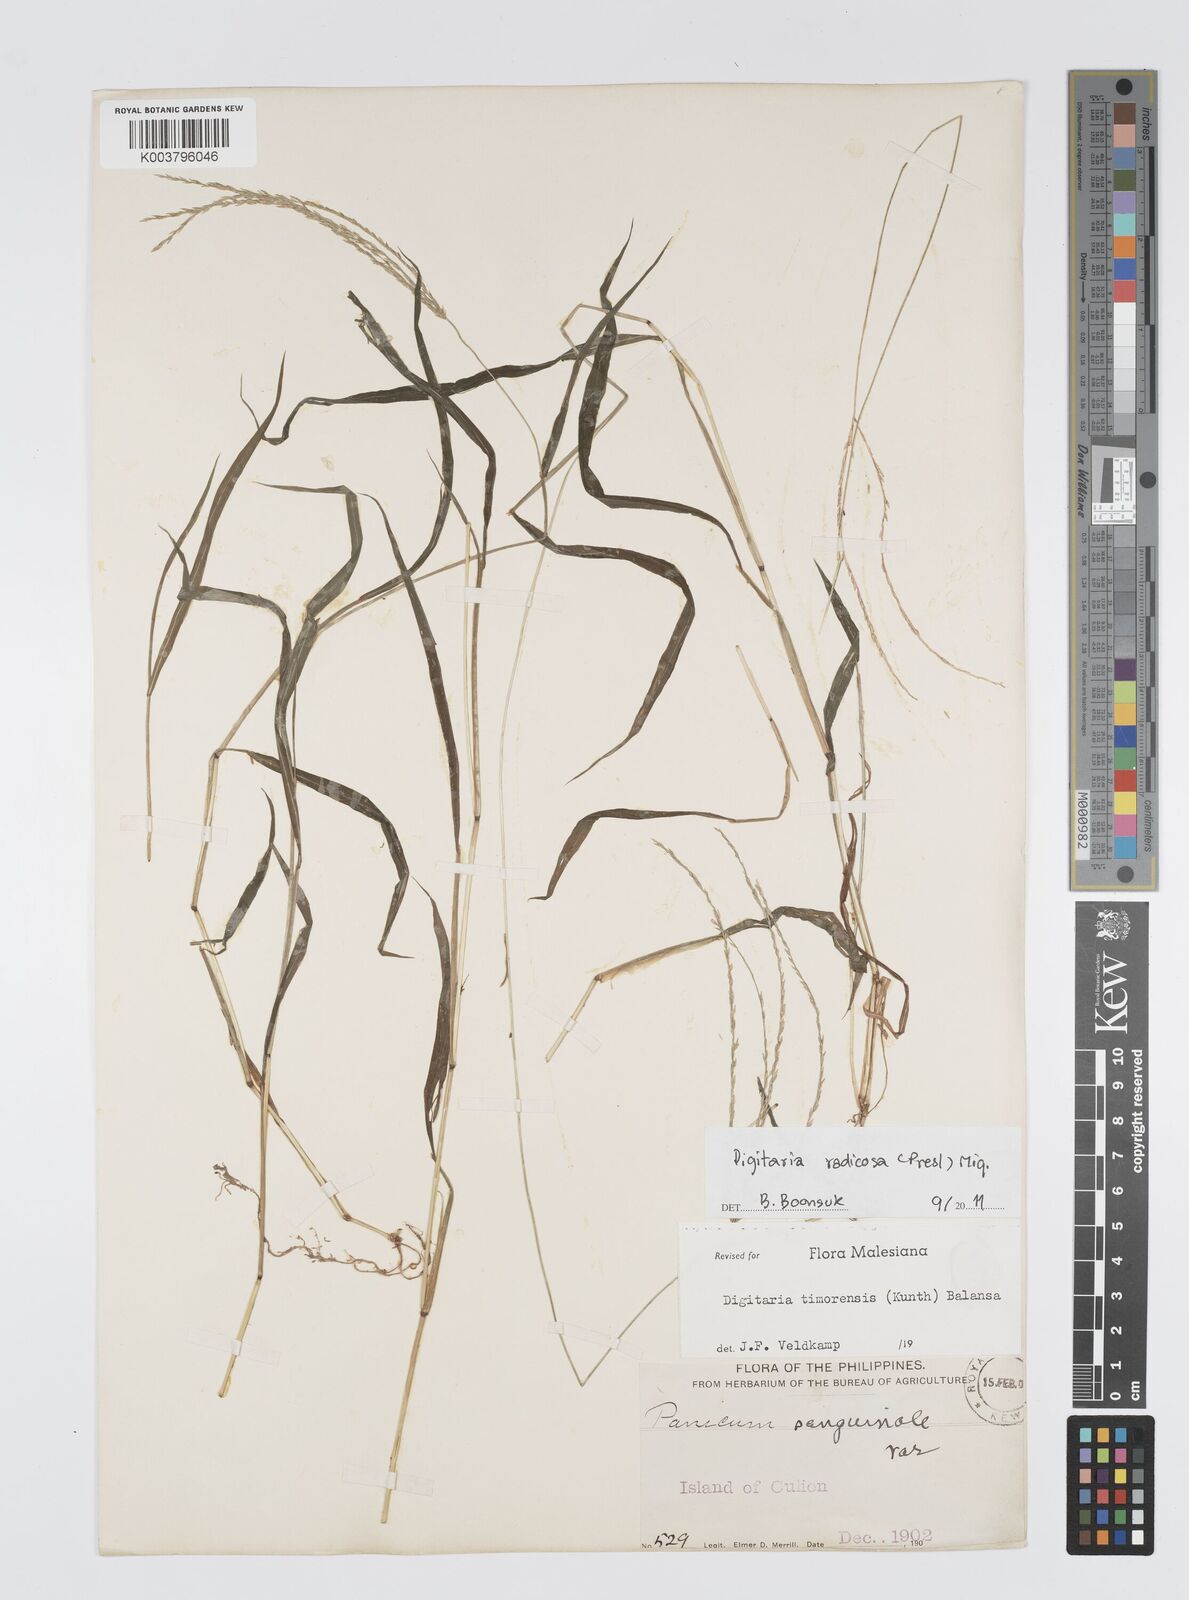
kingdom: Plantae
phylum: Tracheophyta
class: Liliopsida
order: Poales
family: Poaceae
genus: Digitaria
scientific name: Digitaria radicosa
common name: Trailing crabgrass
